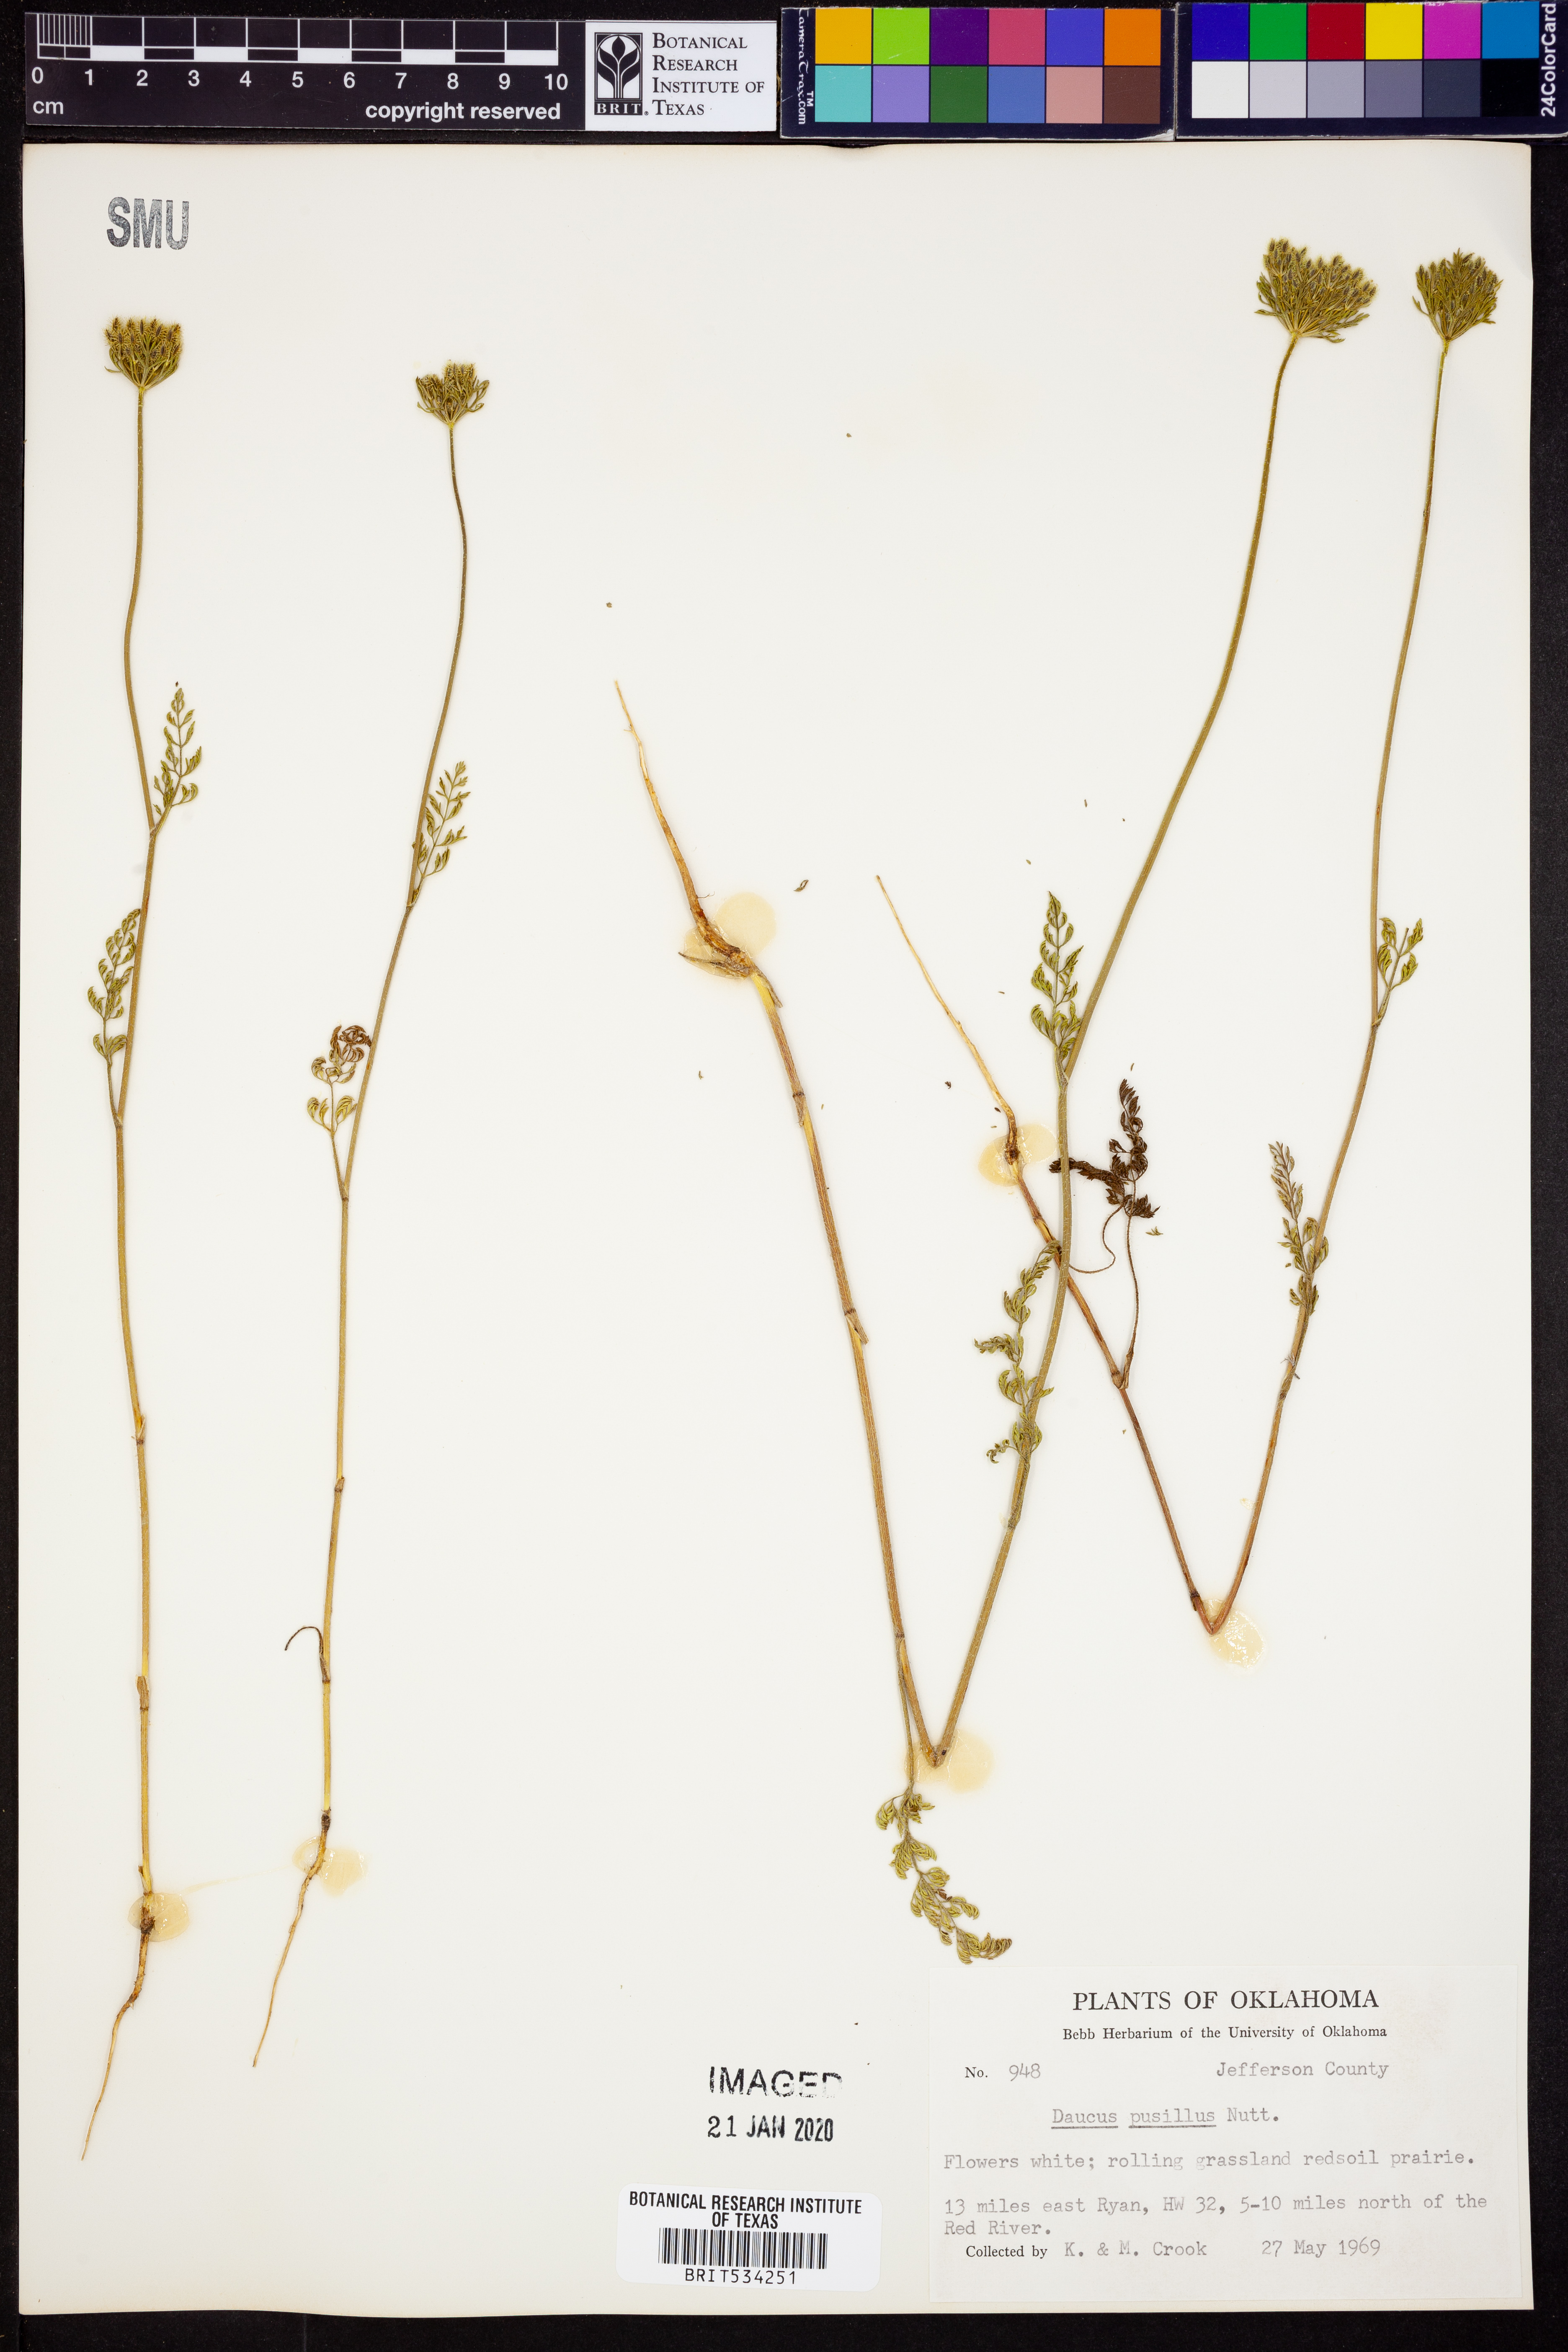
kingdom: Plantae
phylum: Tracheophyta
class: Magnoliopsida
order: Apiales
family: Apiaceae
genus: Daucus
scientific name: Daucus pusillus
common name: Southwest wild carrot
